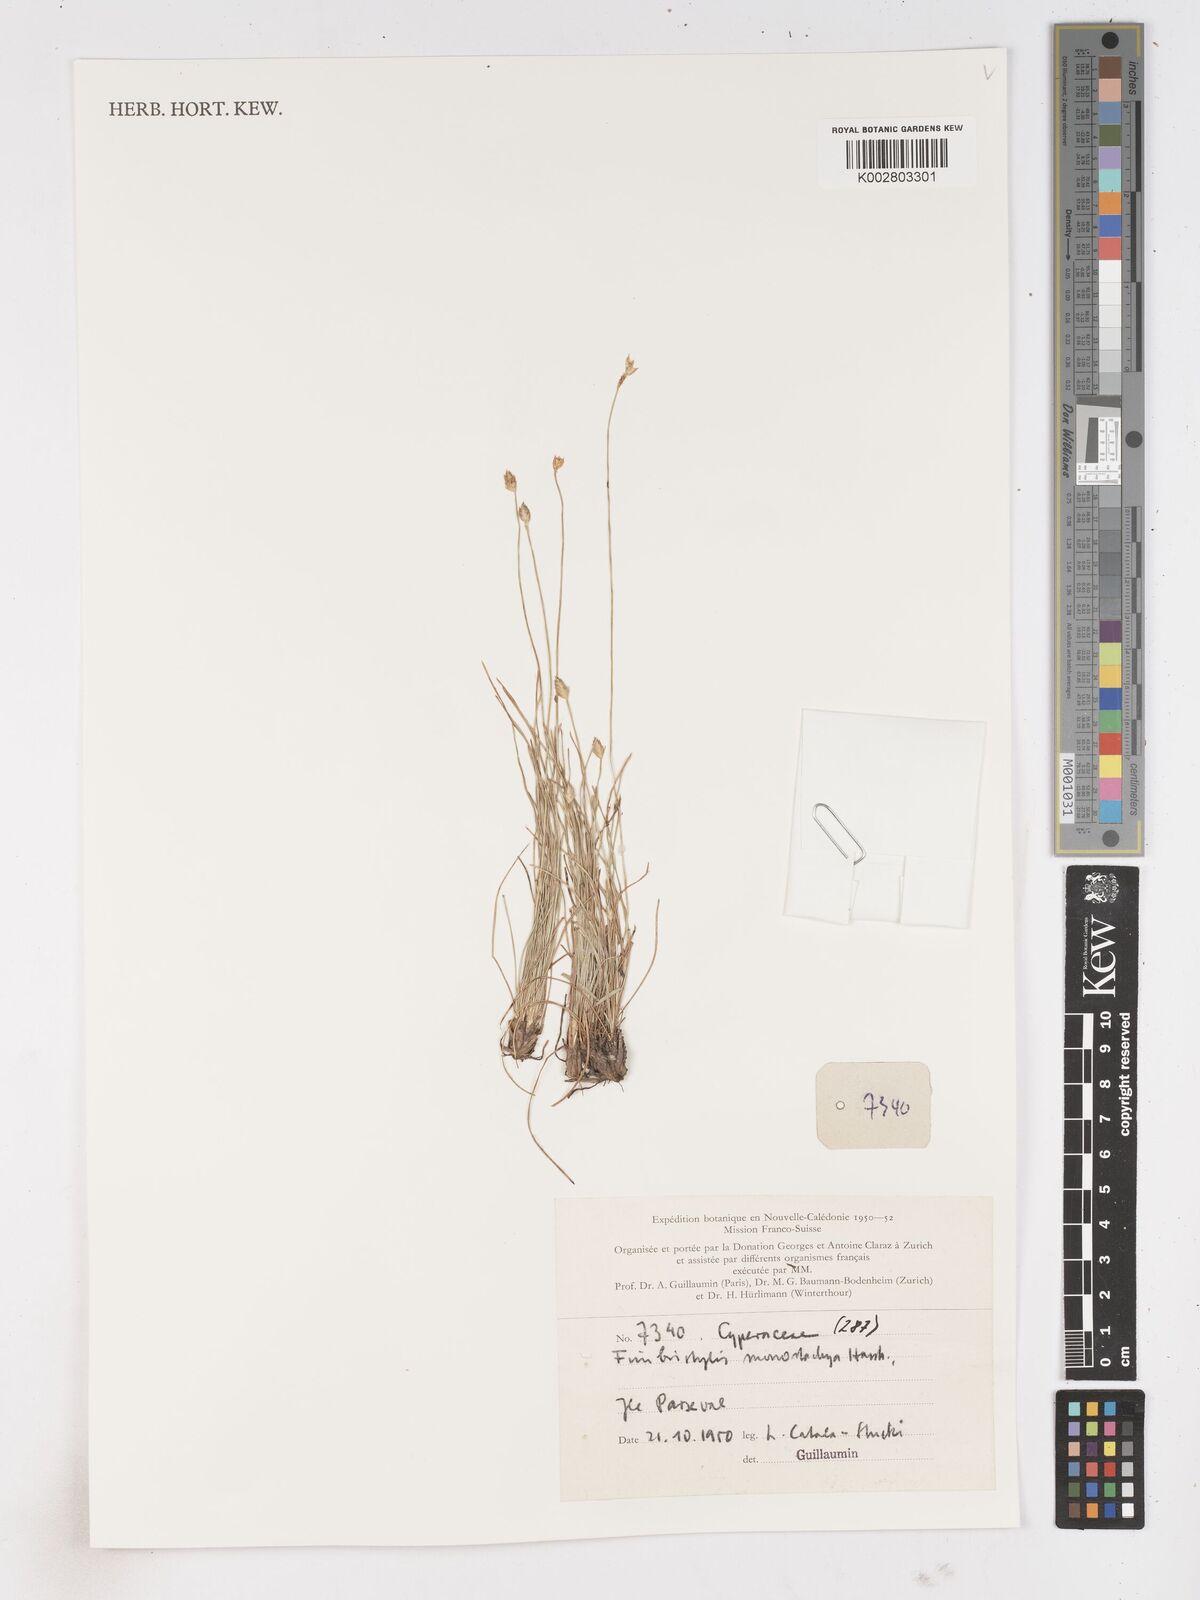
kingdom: Plantae
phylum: Tracheophyta
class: Liliopsida
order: Poales
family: Cyperaceae
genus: Abildgaardia
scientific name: Abildgaardia ovata
